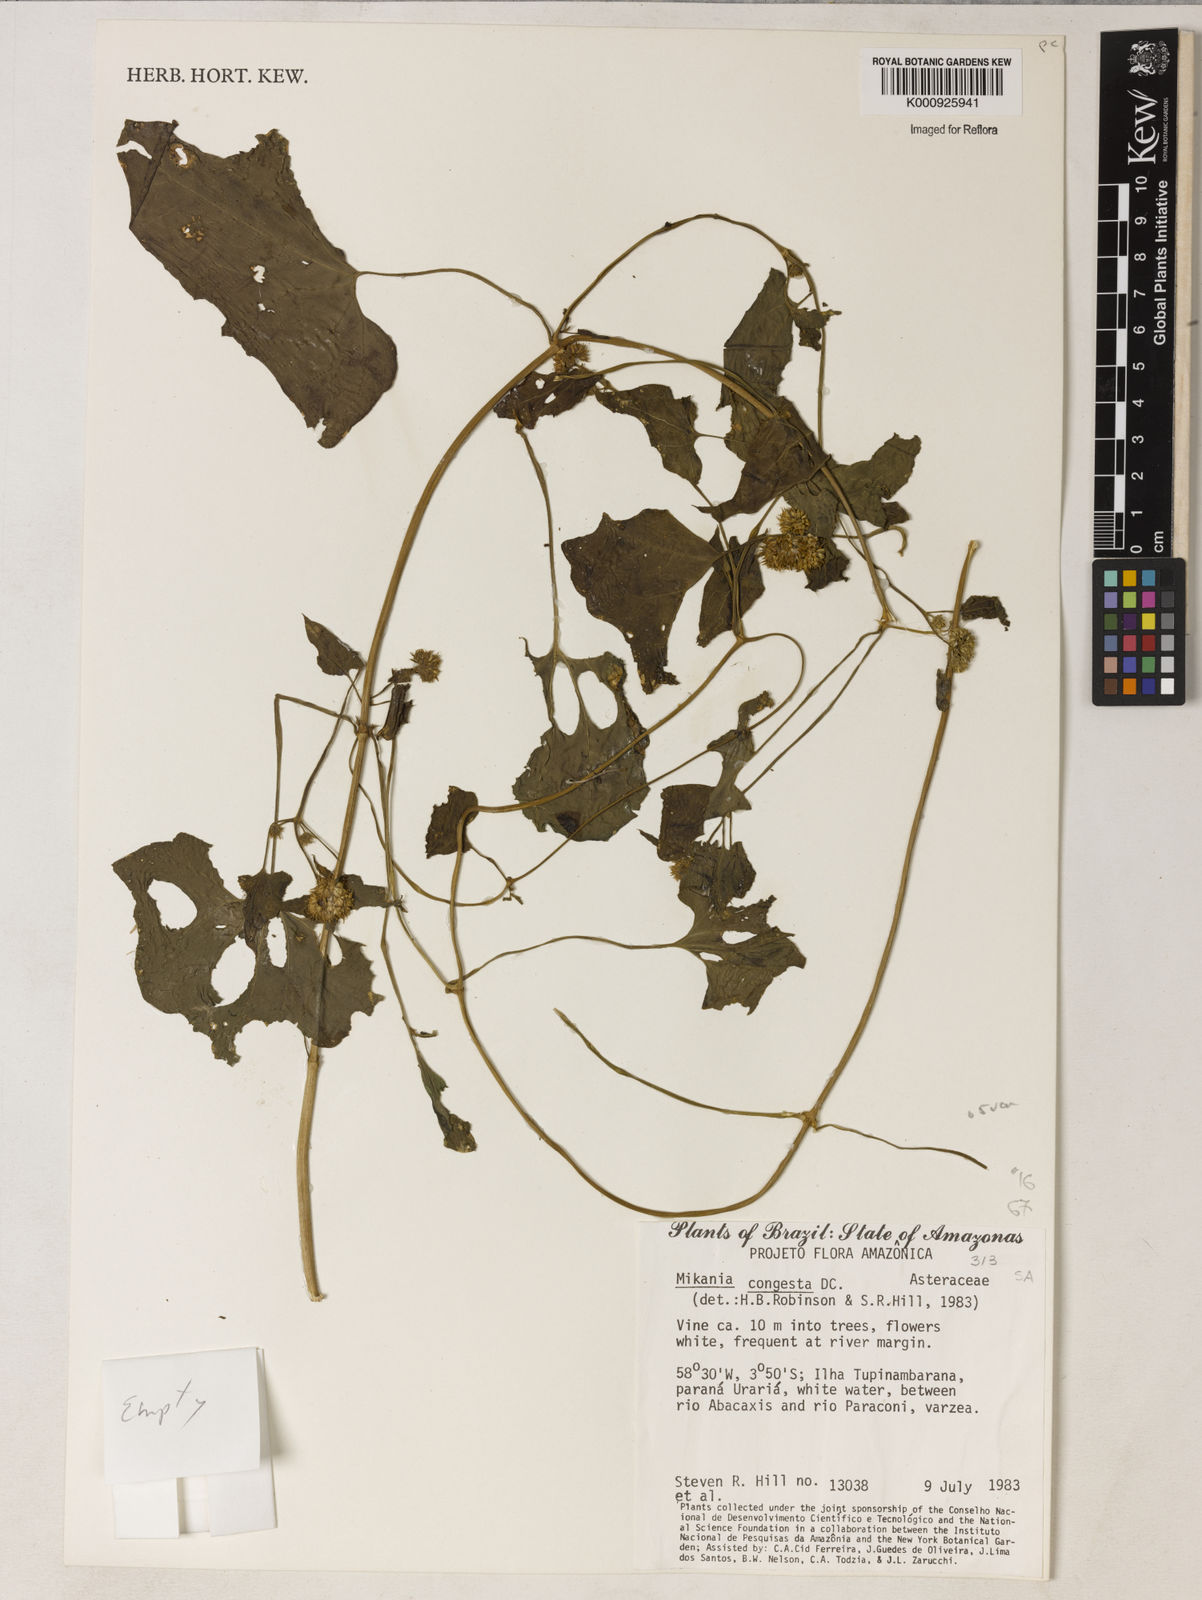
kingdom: Plantae
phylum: Tracheophyta
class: Magnoliopsida
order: Asterales
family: Asteraceae
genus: Mikania
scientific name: Mikania congesta
